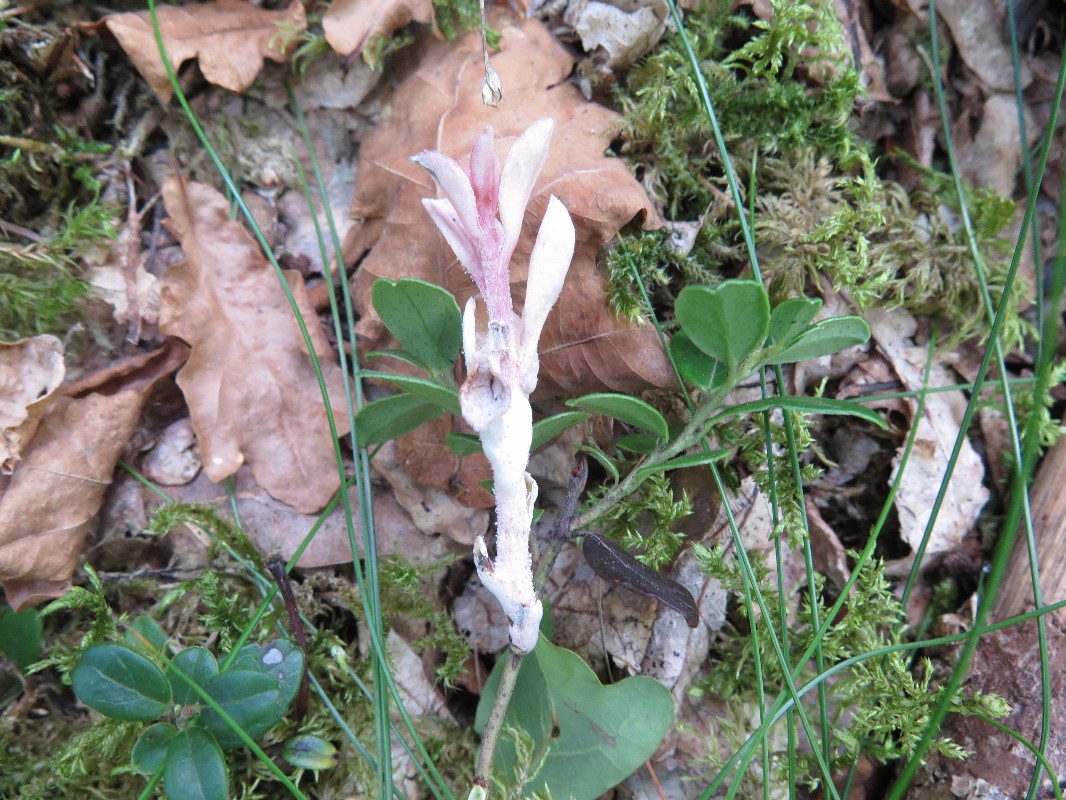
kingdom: Fungi
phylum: Basidiomycota
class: Exobasidiomycetes
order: Exobasidiales
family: Exobasidiaceae
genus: Exobasidium
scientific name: Exobasidium vaccinii
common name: tyttebærblad-bøllesvamp
